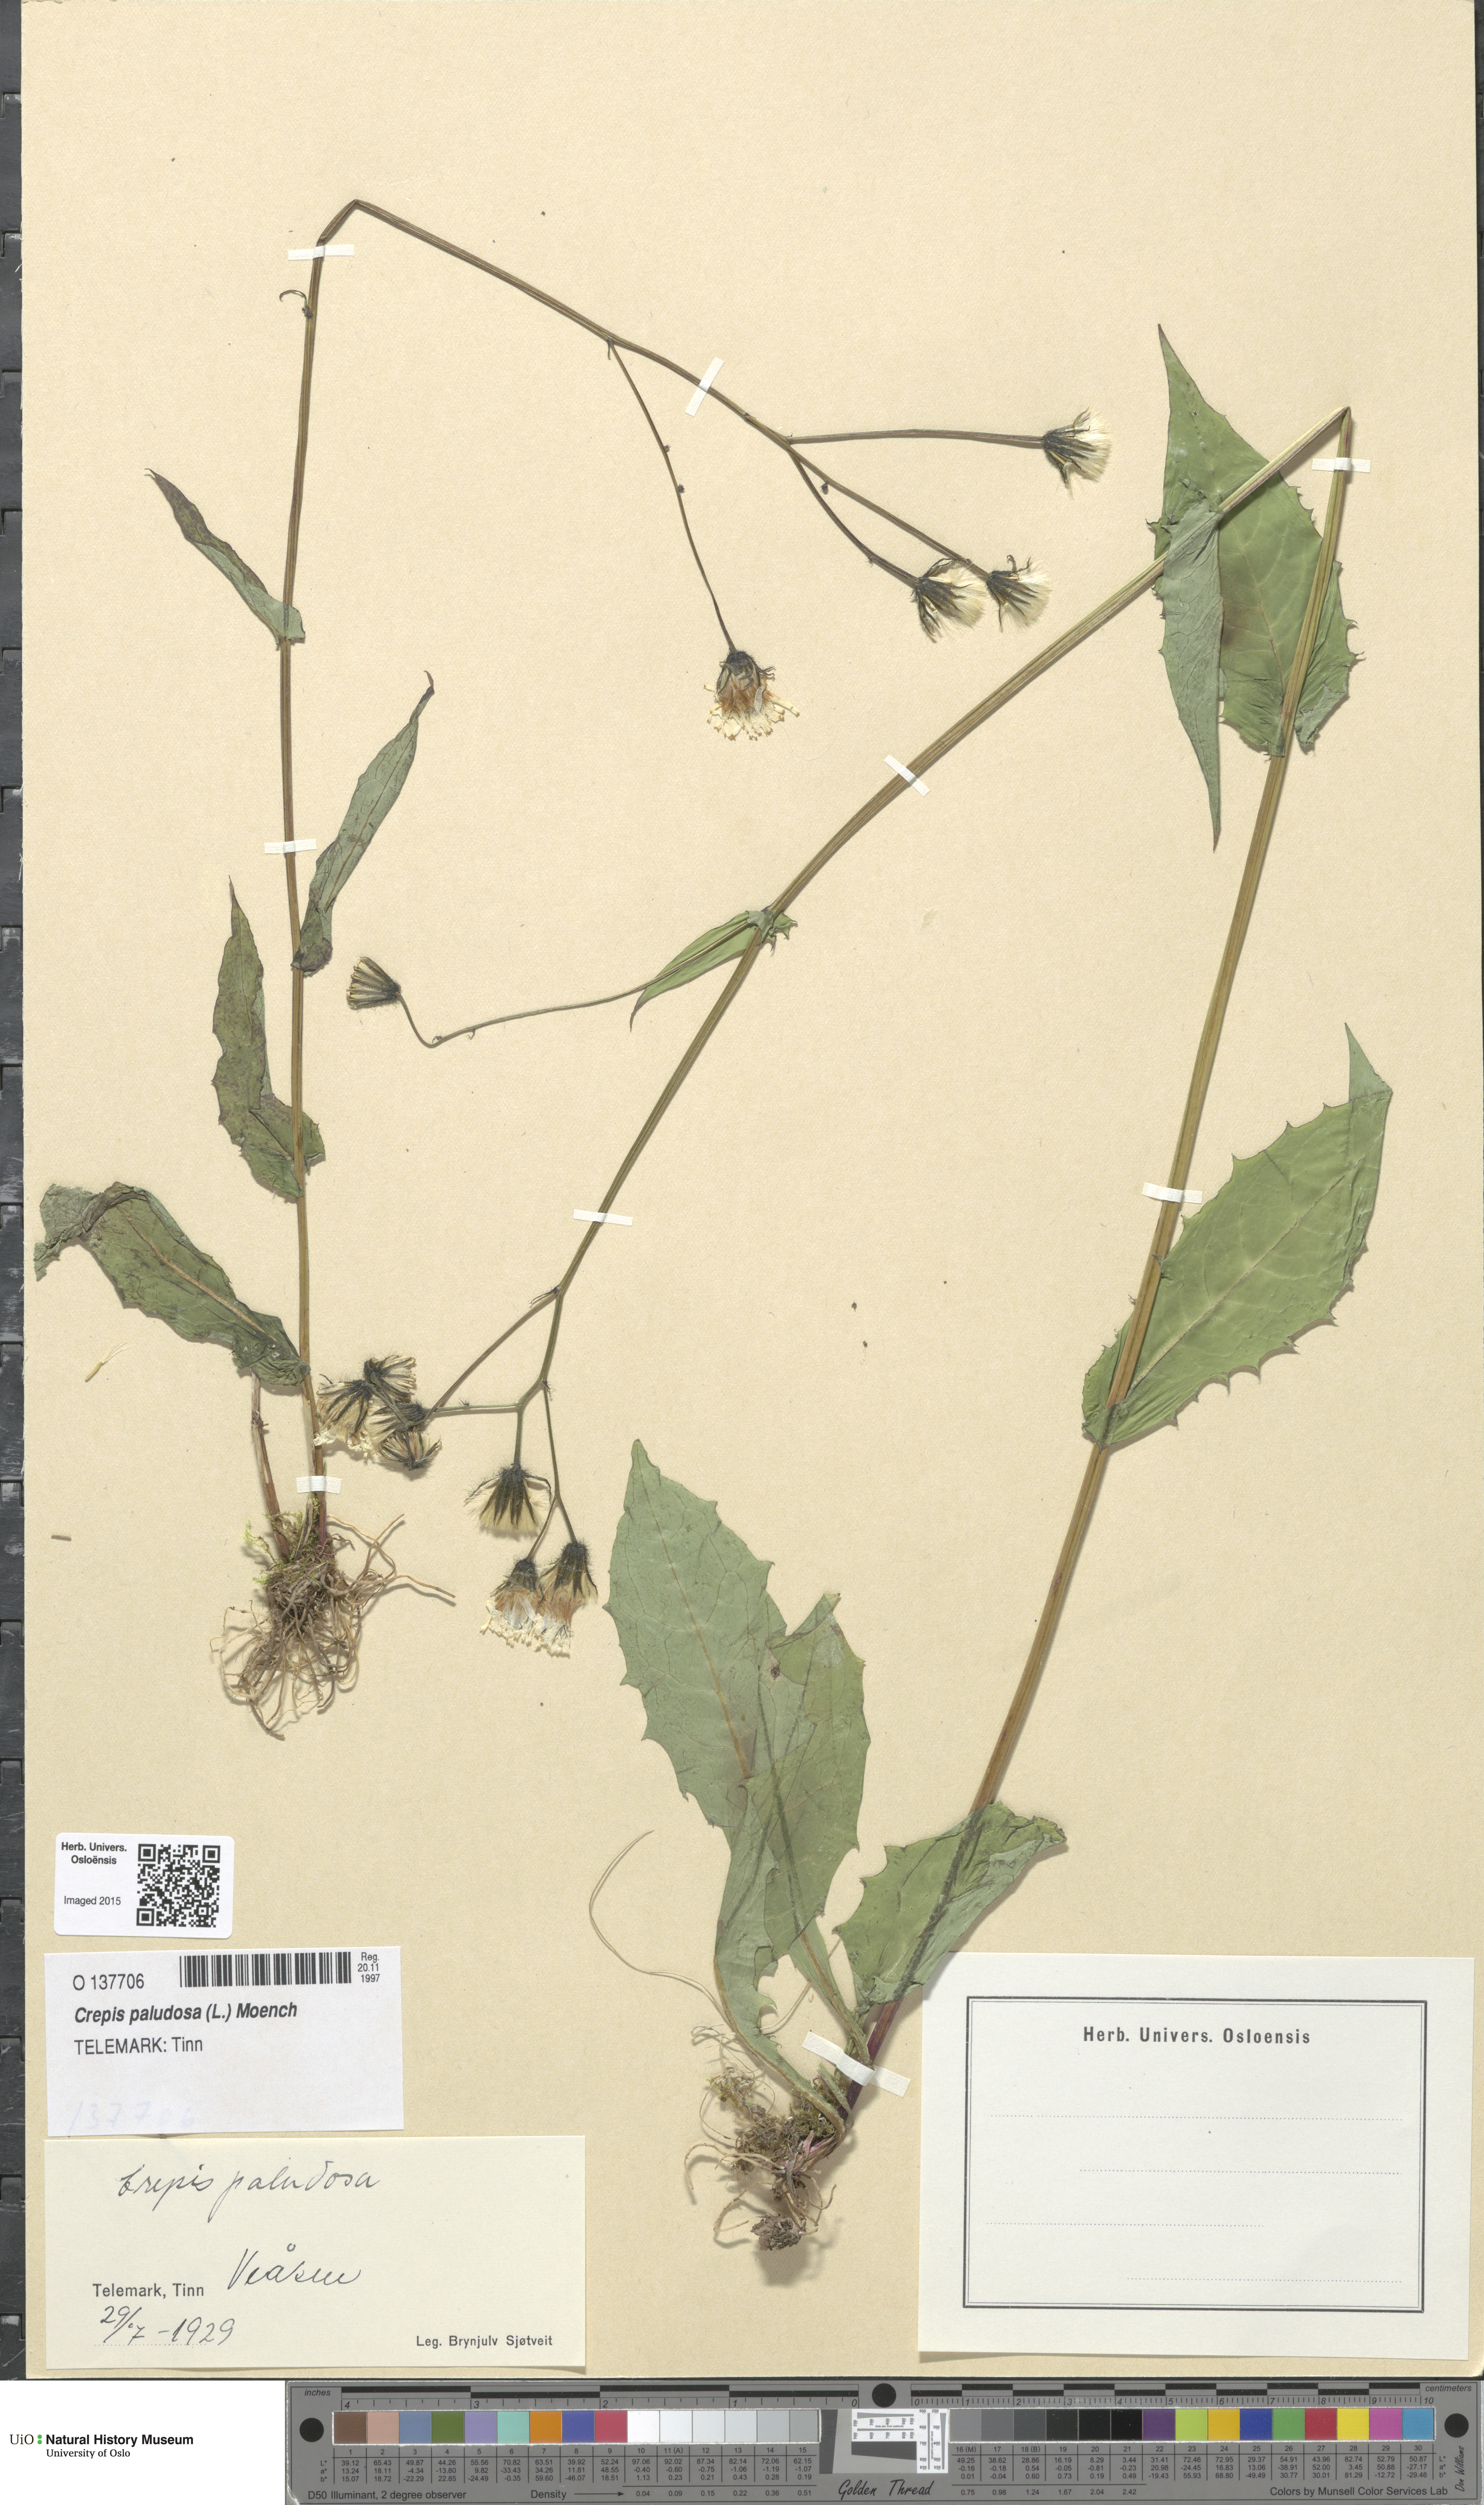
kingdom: Plantae
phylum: Tracheophyta
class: Magnoliopsida
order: Asterales
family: Asteraceae
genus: Crepis
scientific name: Crepis paludosa
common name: Marsh hawk's-beard
